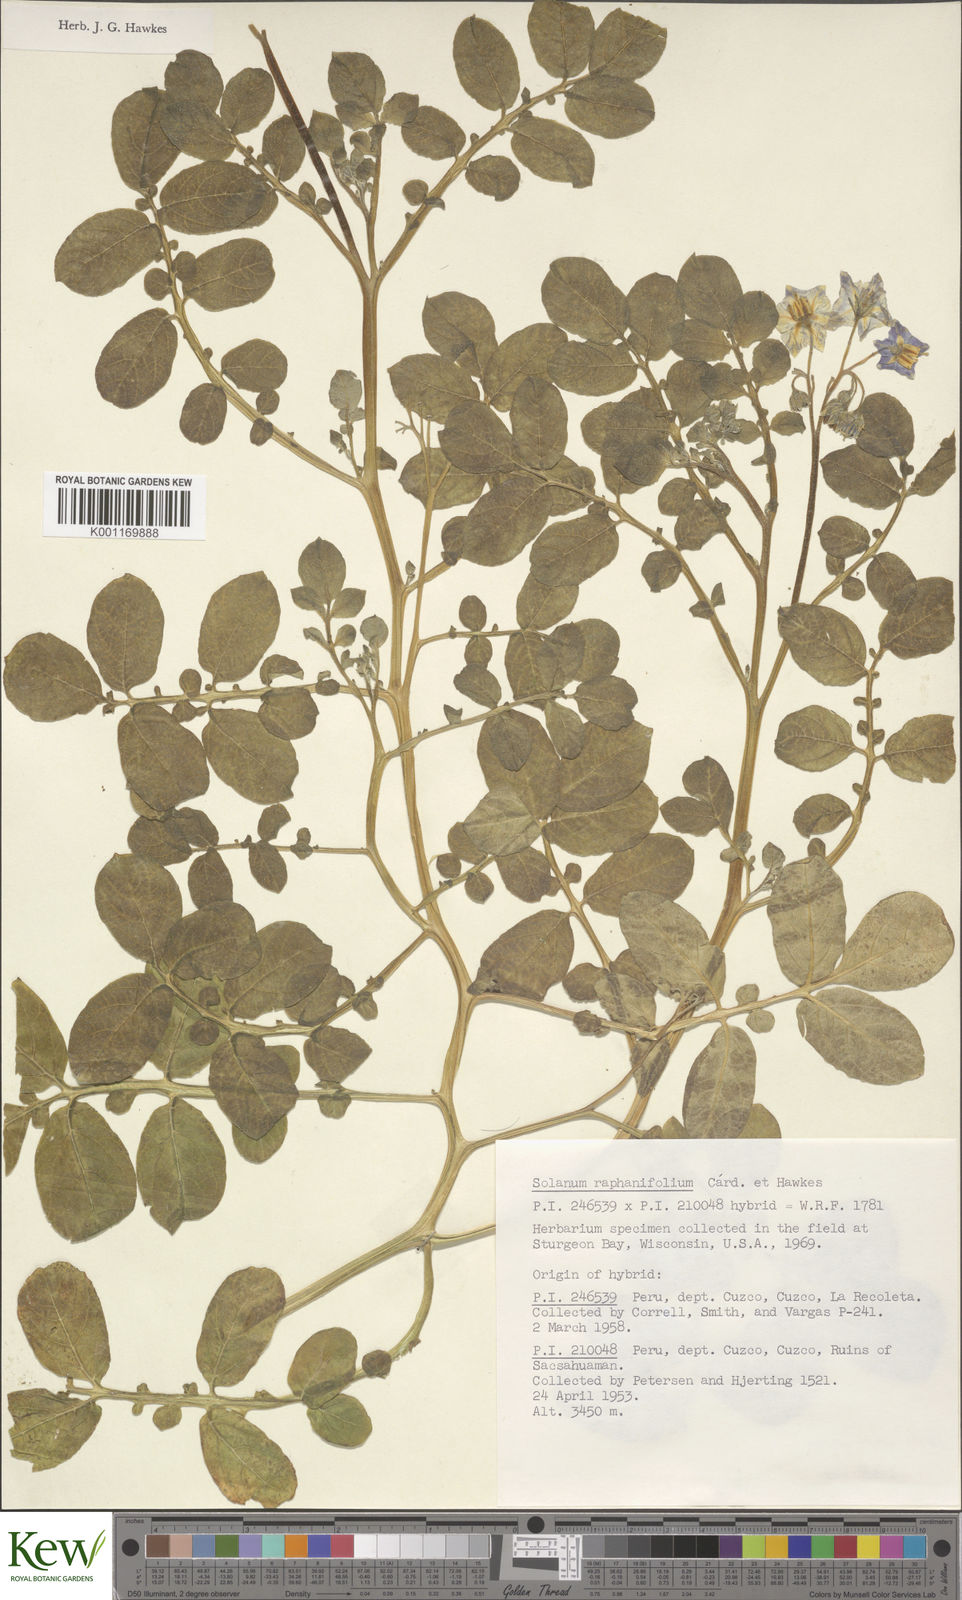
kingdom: Plantae
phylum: Tracheophyta
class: Magnoliopsida
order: Solanales
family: Solanaceae
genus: Solanum
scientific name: Solanum
